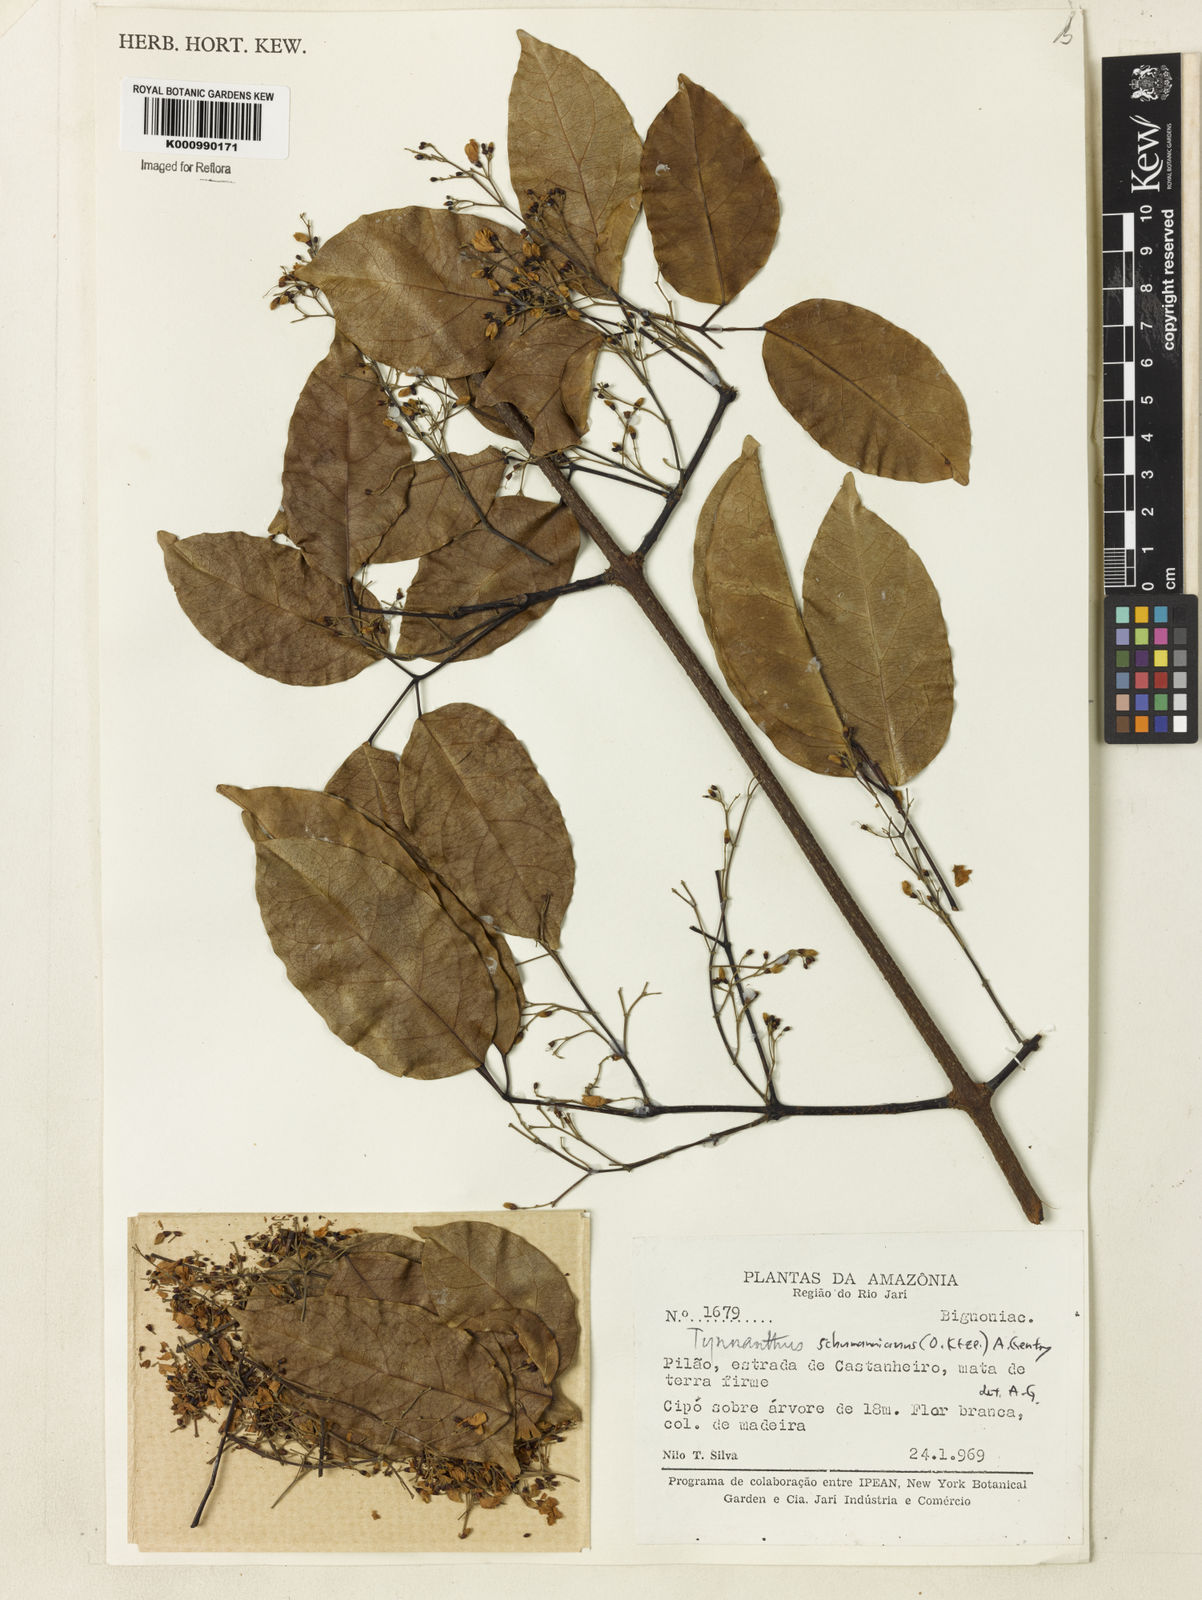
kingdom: Plantae
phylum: Tracheophyta
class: Magnoliopsida
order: Lamiales
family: Bignoniaceae
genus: Tynanthus
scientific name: Tynanthus schumannianus
